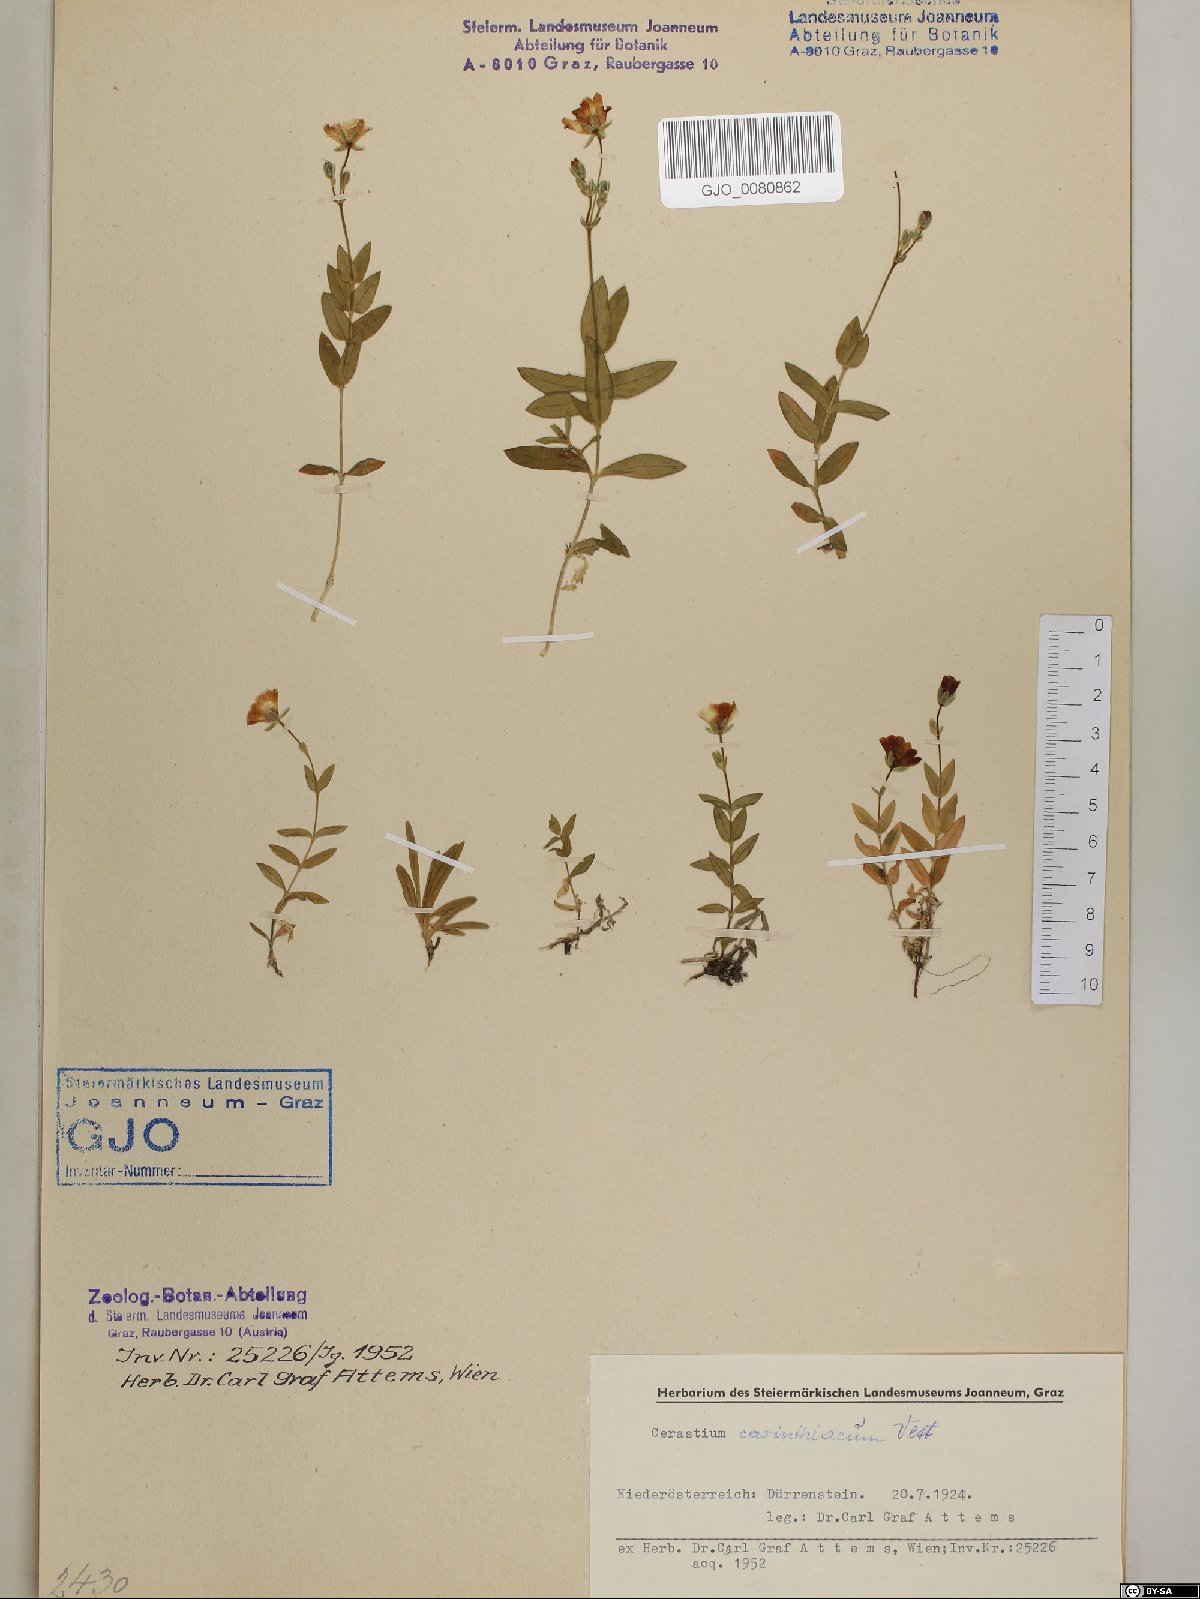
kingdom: Plantae
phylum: Tracheophyta
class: Magnoliopsida
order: Caryophyllales
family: Caryophyllaceae
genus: Cerastium
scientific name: Cerastium carinthiacum
